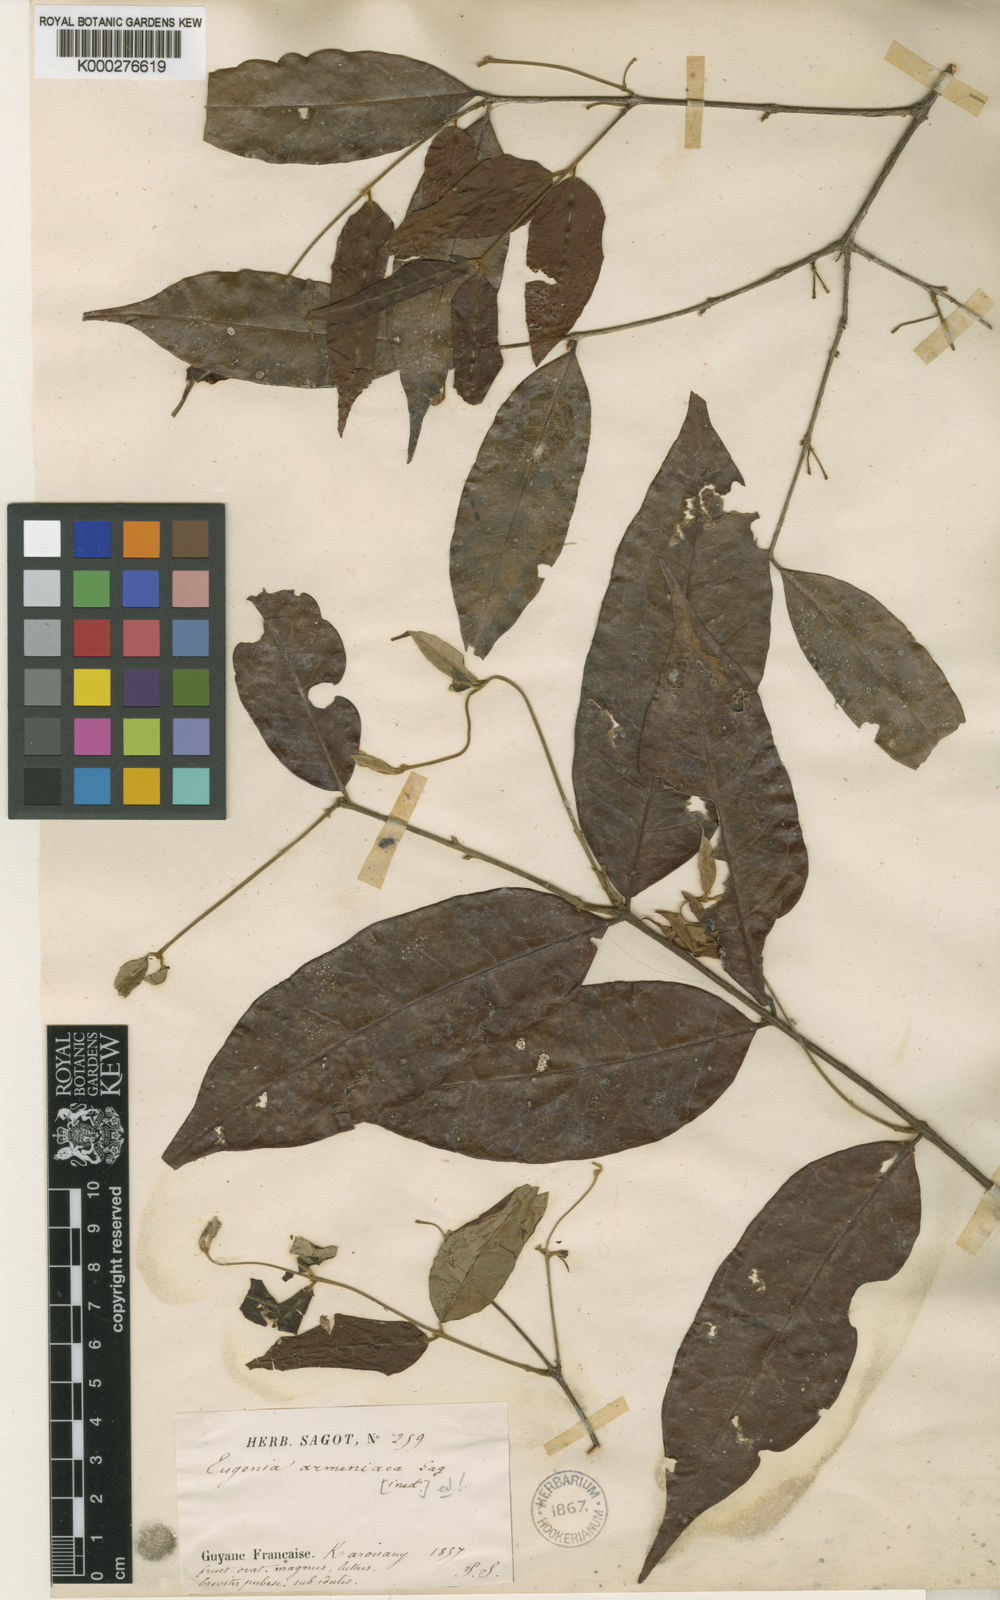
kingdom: Plantae
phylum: Tracheophyta
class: Magnoliopsida
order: Myrtales
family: Myrtaceae
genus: Eugenia
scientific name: Eugenia armeniaca
